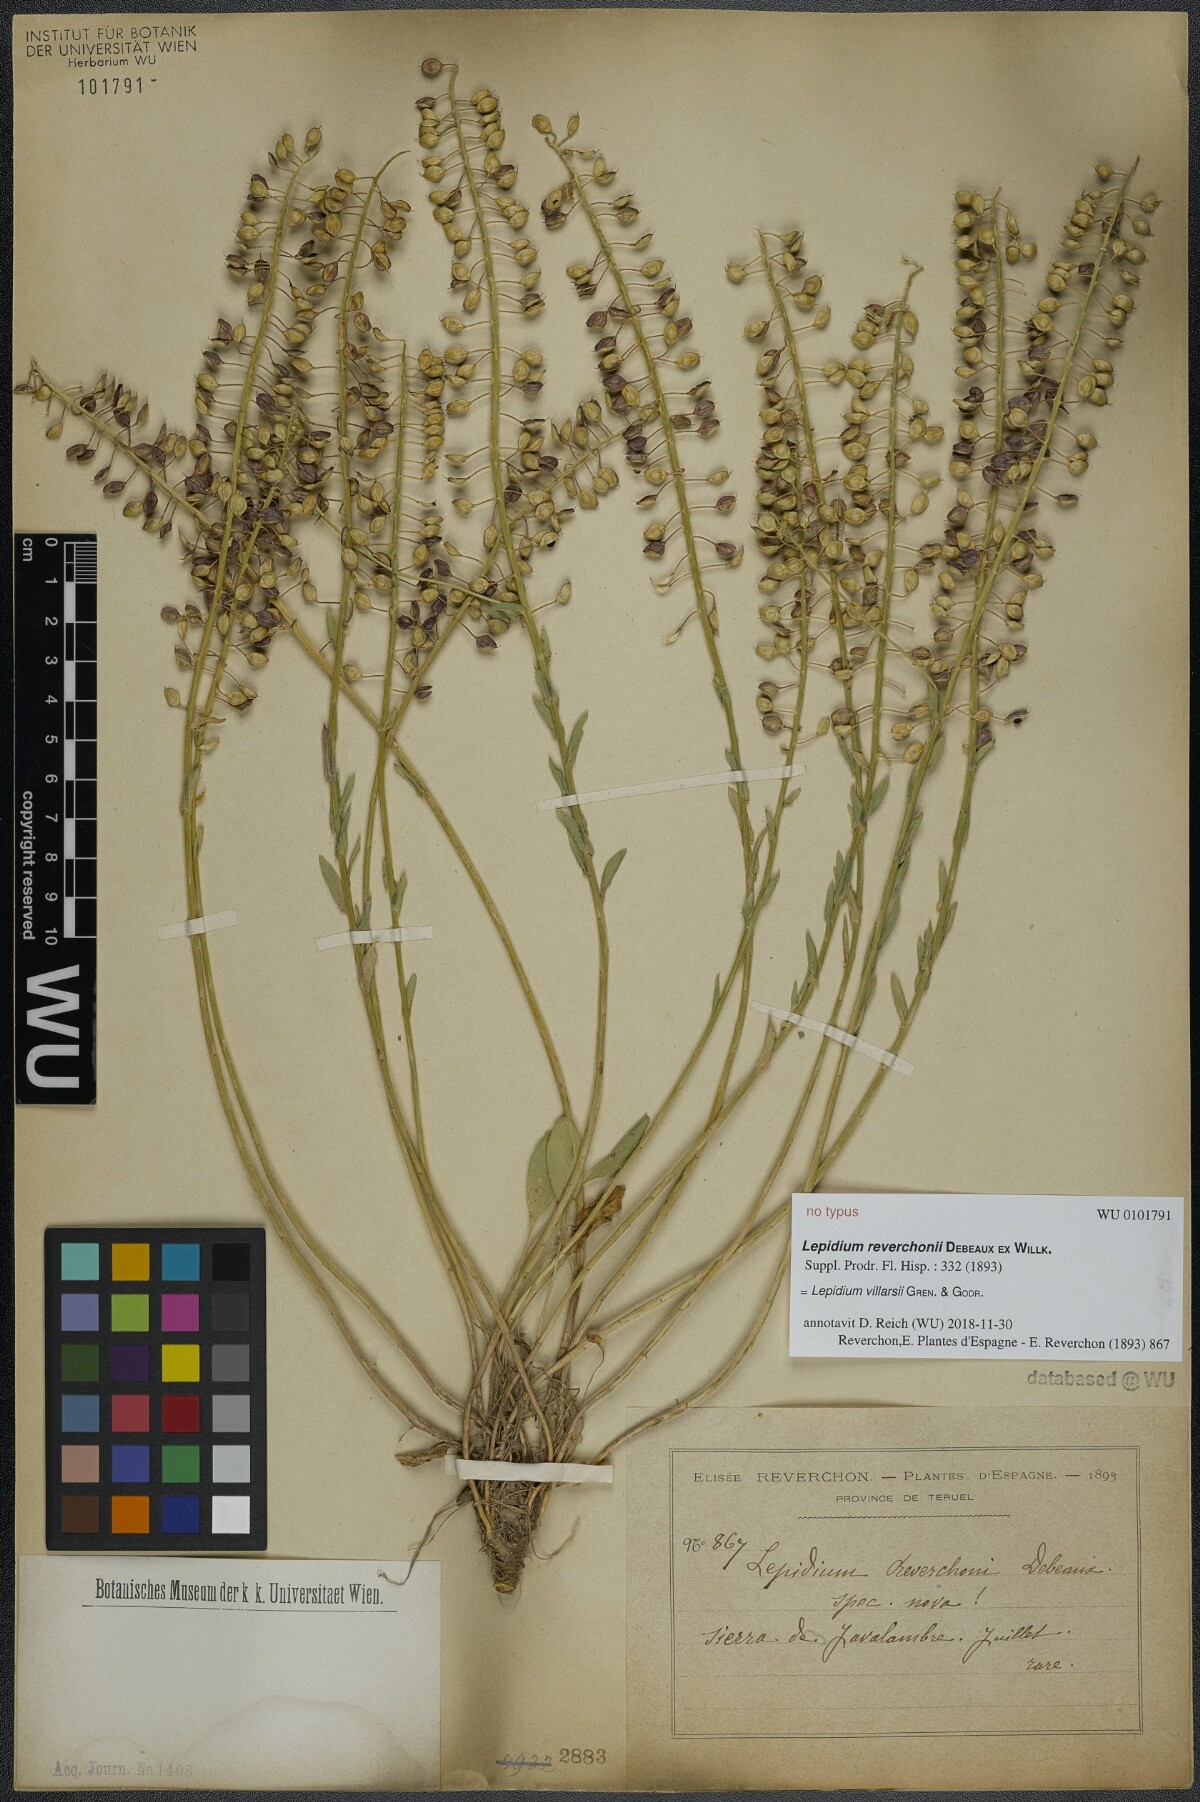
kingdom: Plantae
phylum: Tracheophyta
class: Magnoliopsida
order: Brassicales
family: Brassicaceae
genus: Lepidium
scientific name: Lepidium villarsii
